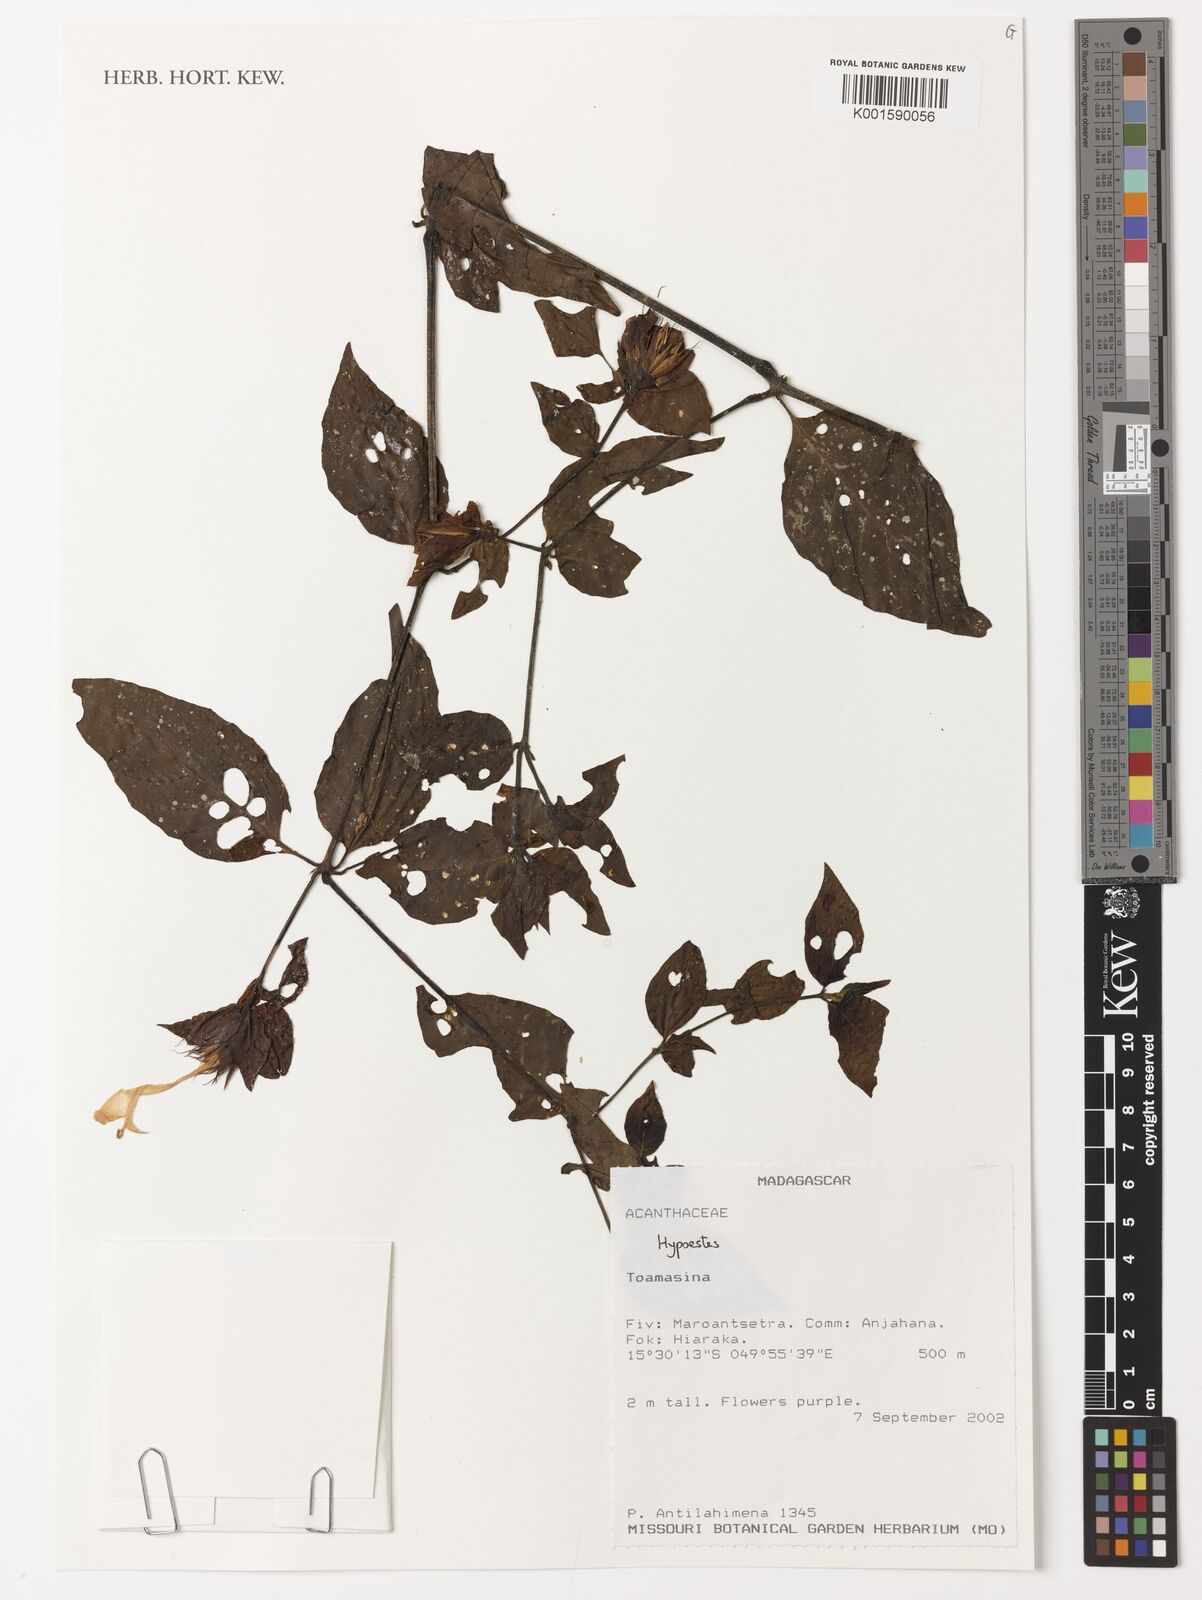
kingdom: Plantae
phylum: Tracheophyta
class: Magnoliopsida
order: Lamiales
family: Acanthaceae
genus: Hypoestes
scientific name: Hypoestes
